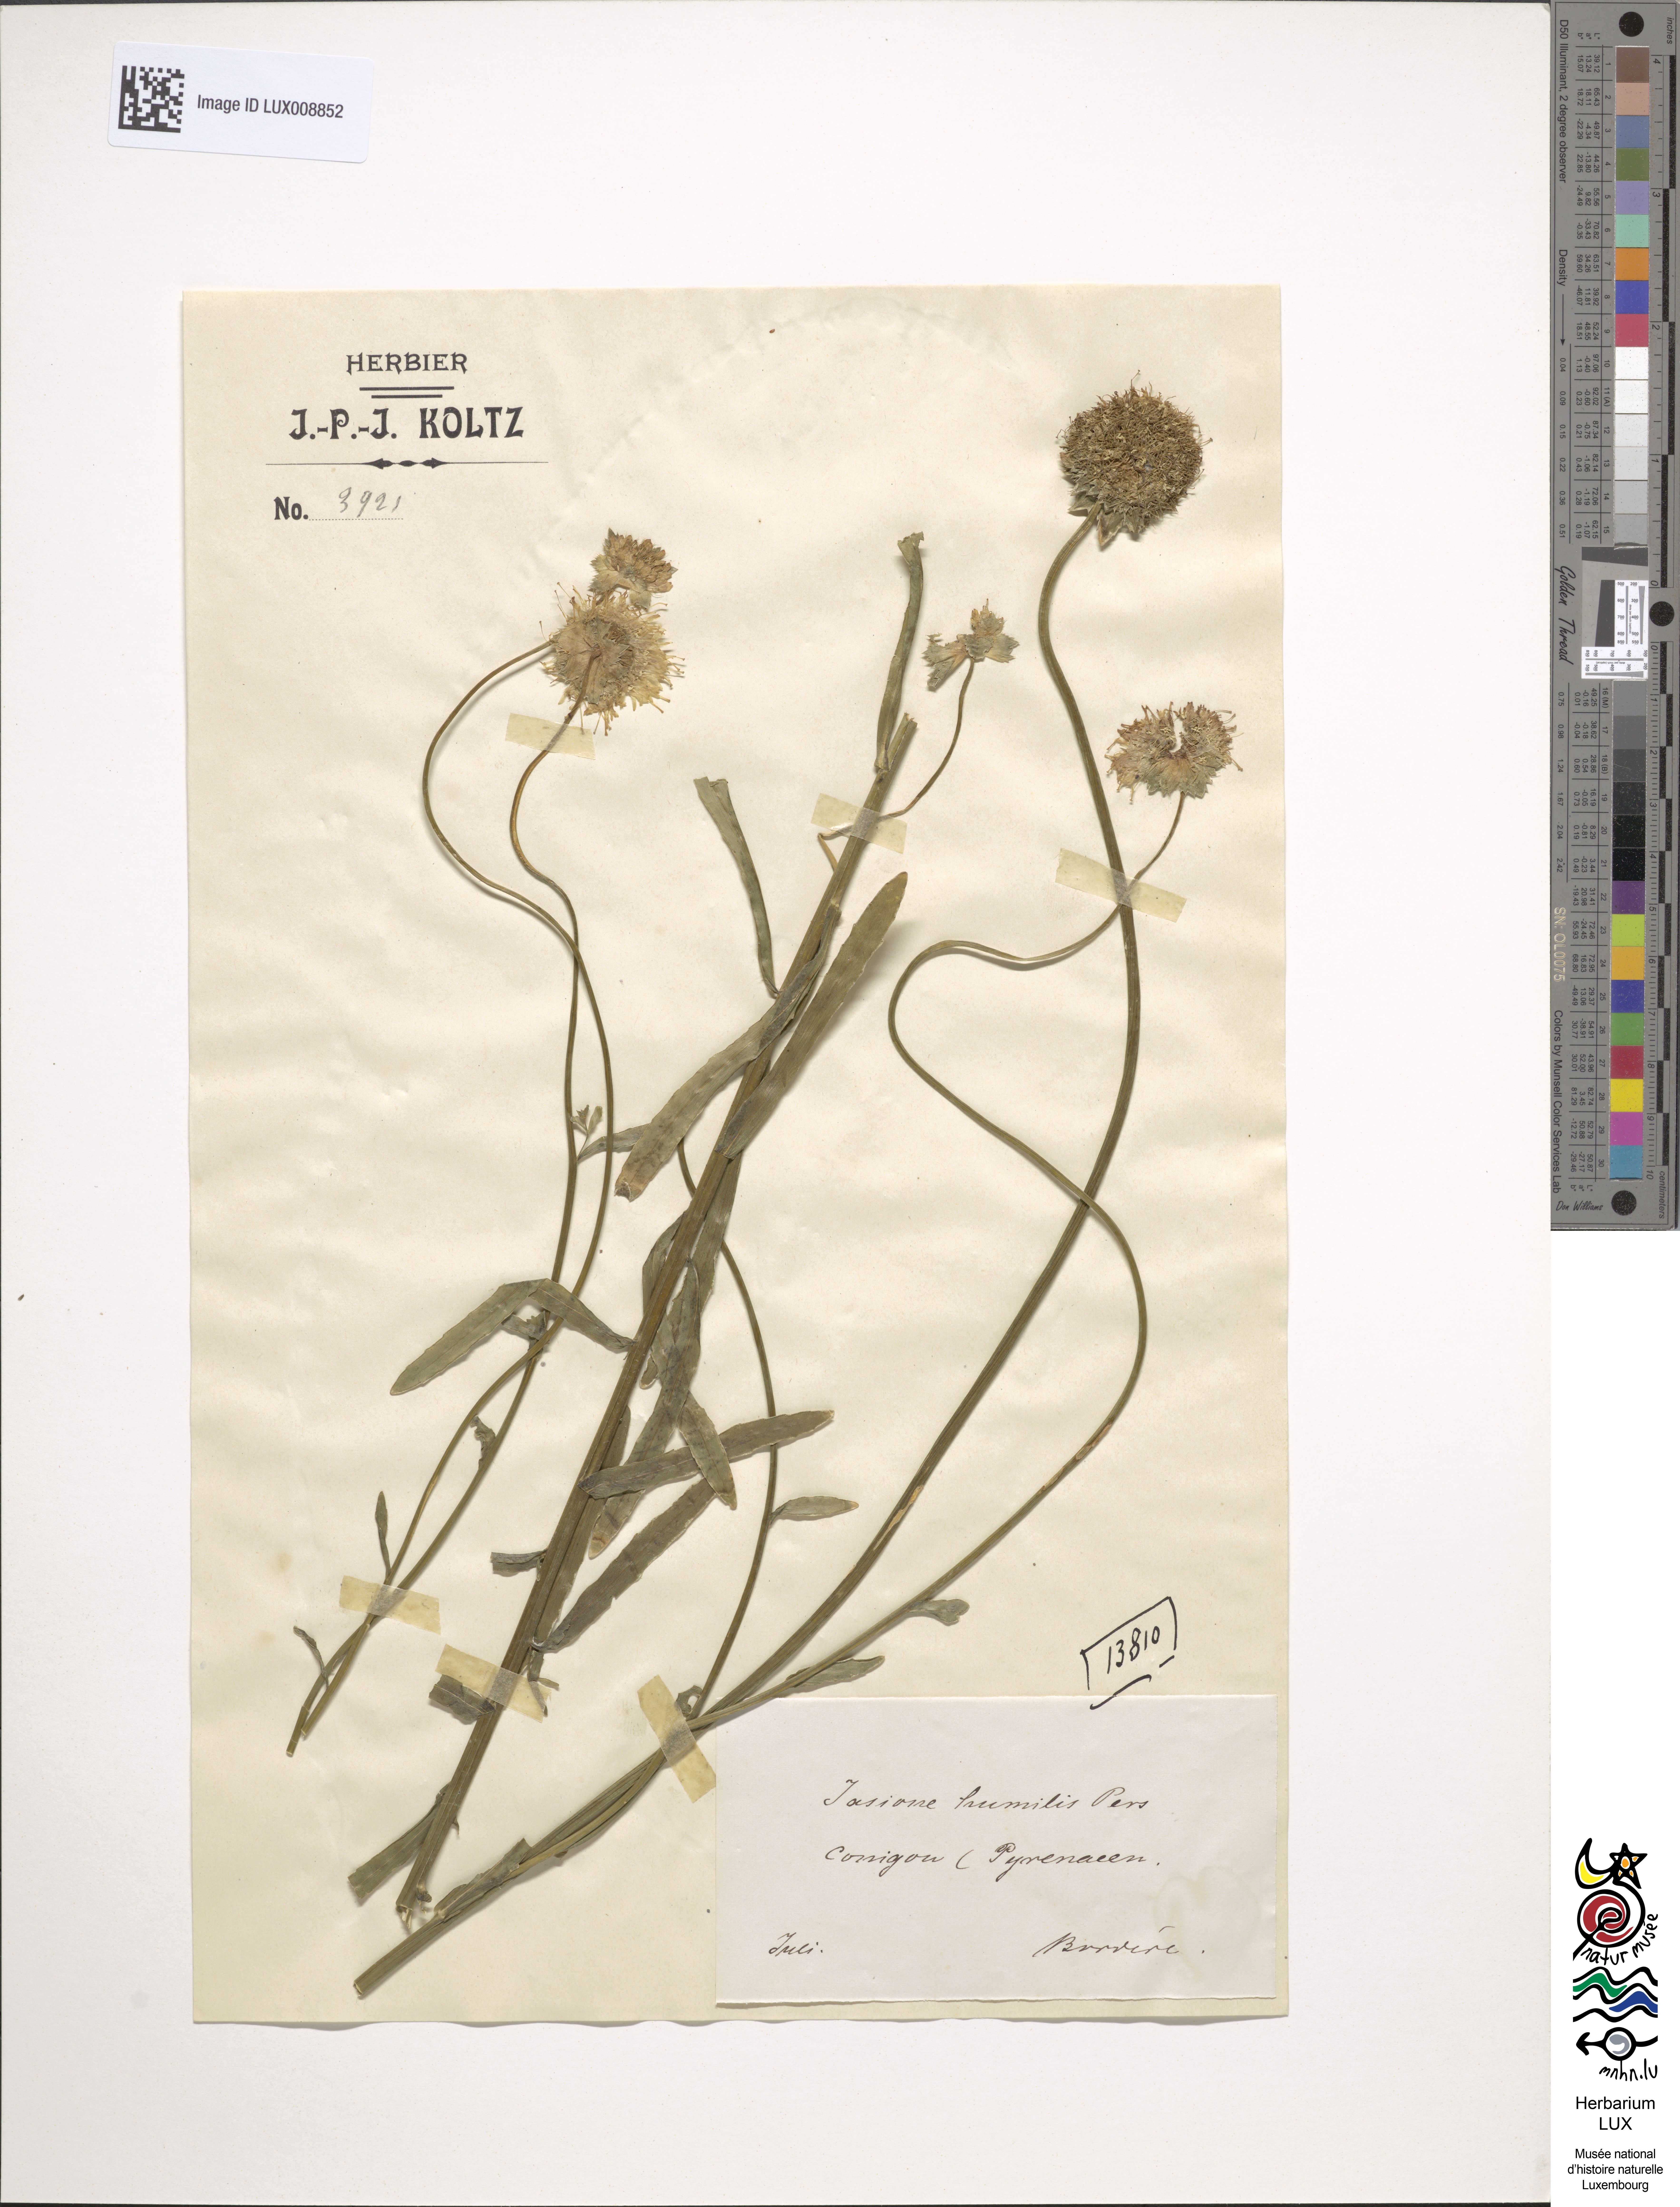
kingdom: Plantae
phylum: Tracheophyta
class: Magnoliopsida
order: Asterales
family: Campanulaceae
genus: Jasione
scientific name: Jasione crispa
